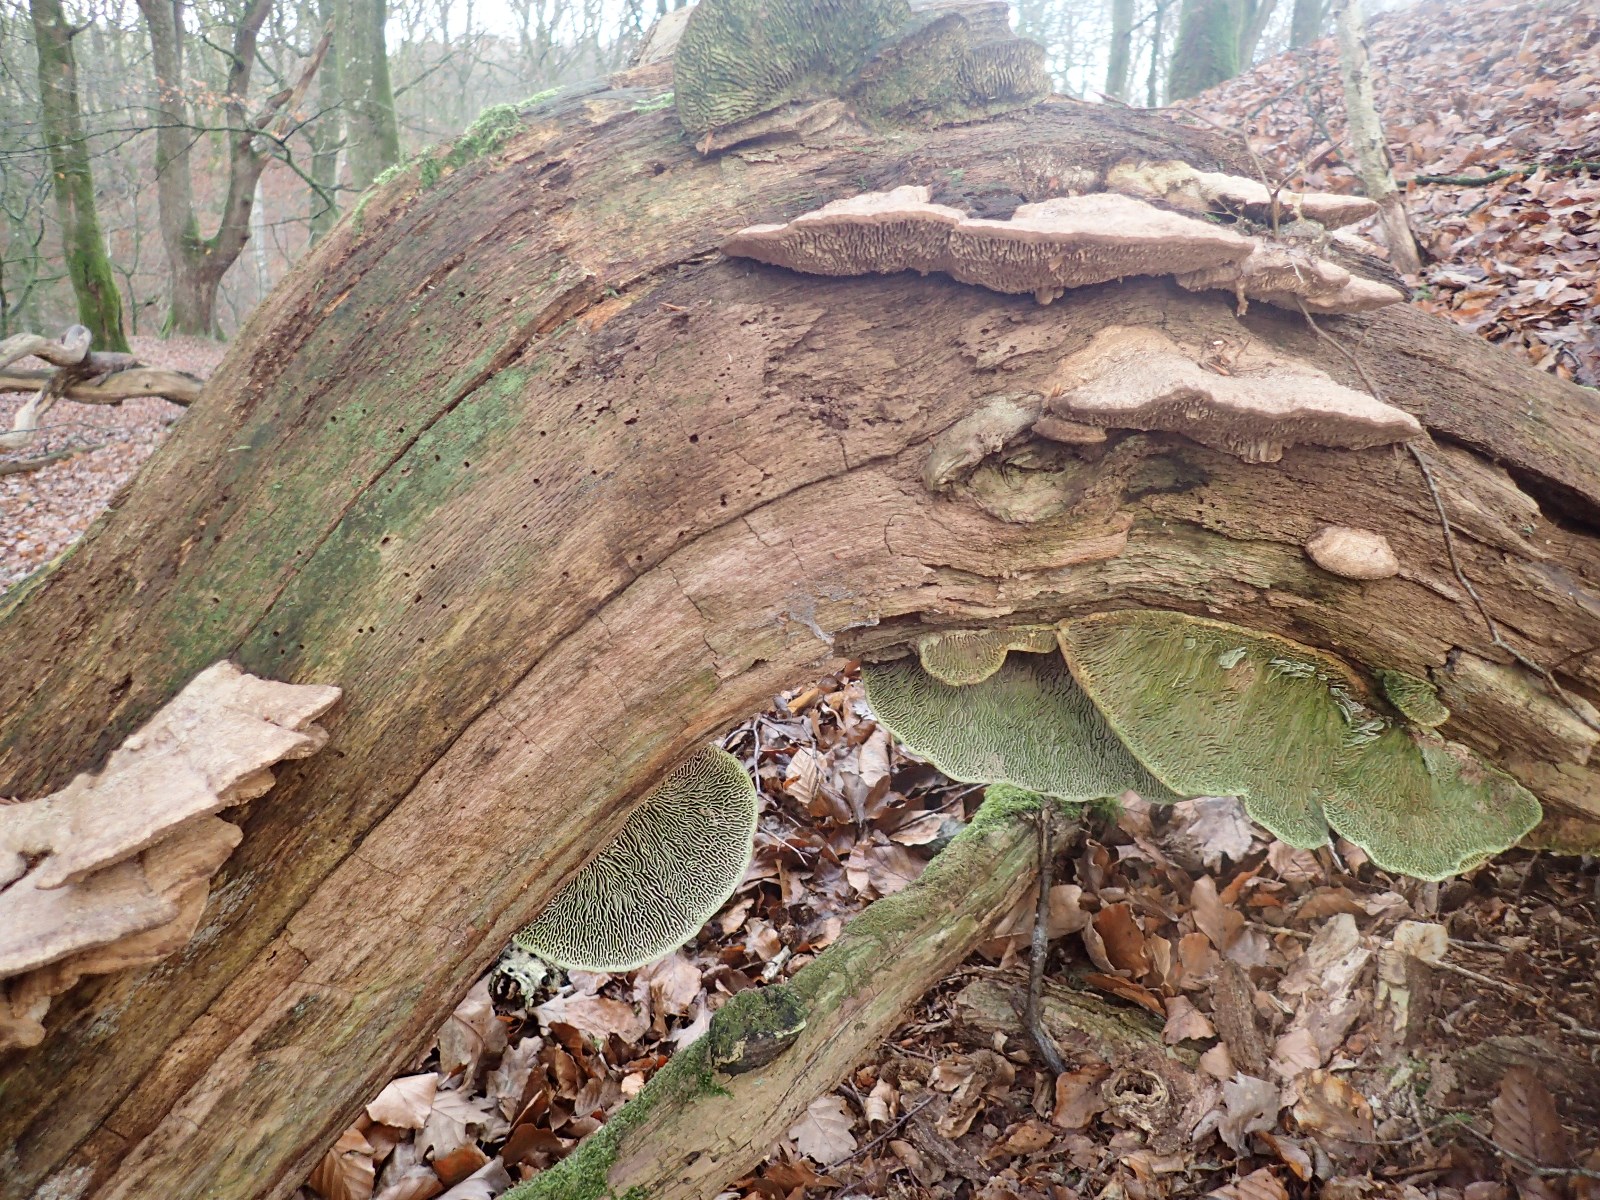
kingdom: Fungi
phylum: Basidiomycota
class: Agaricomycetes
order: Polyporales
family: Fomitopsidaceae
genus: Daedalea
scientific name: Daedalea quercina
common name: ege-labyrintsvamp
